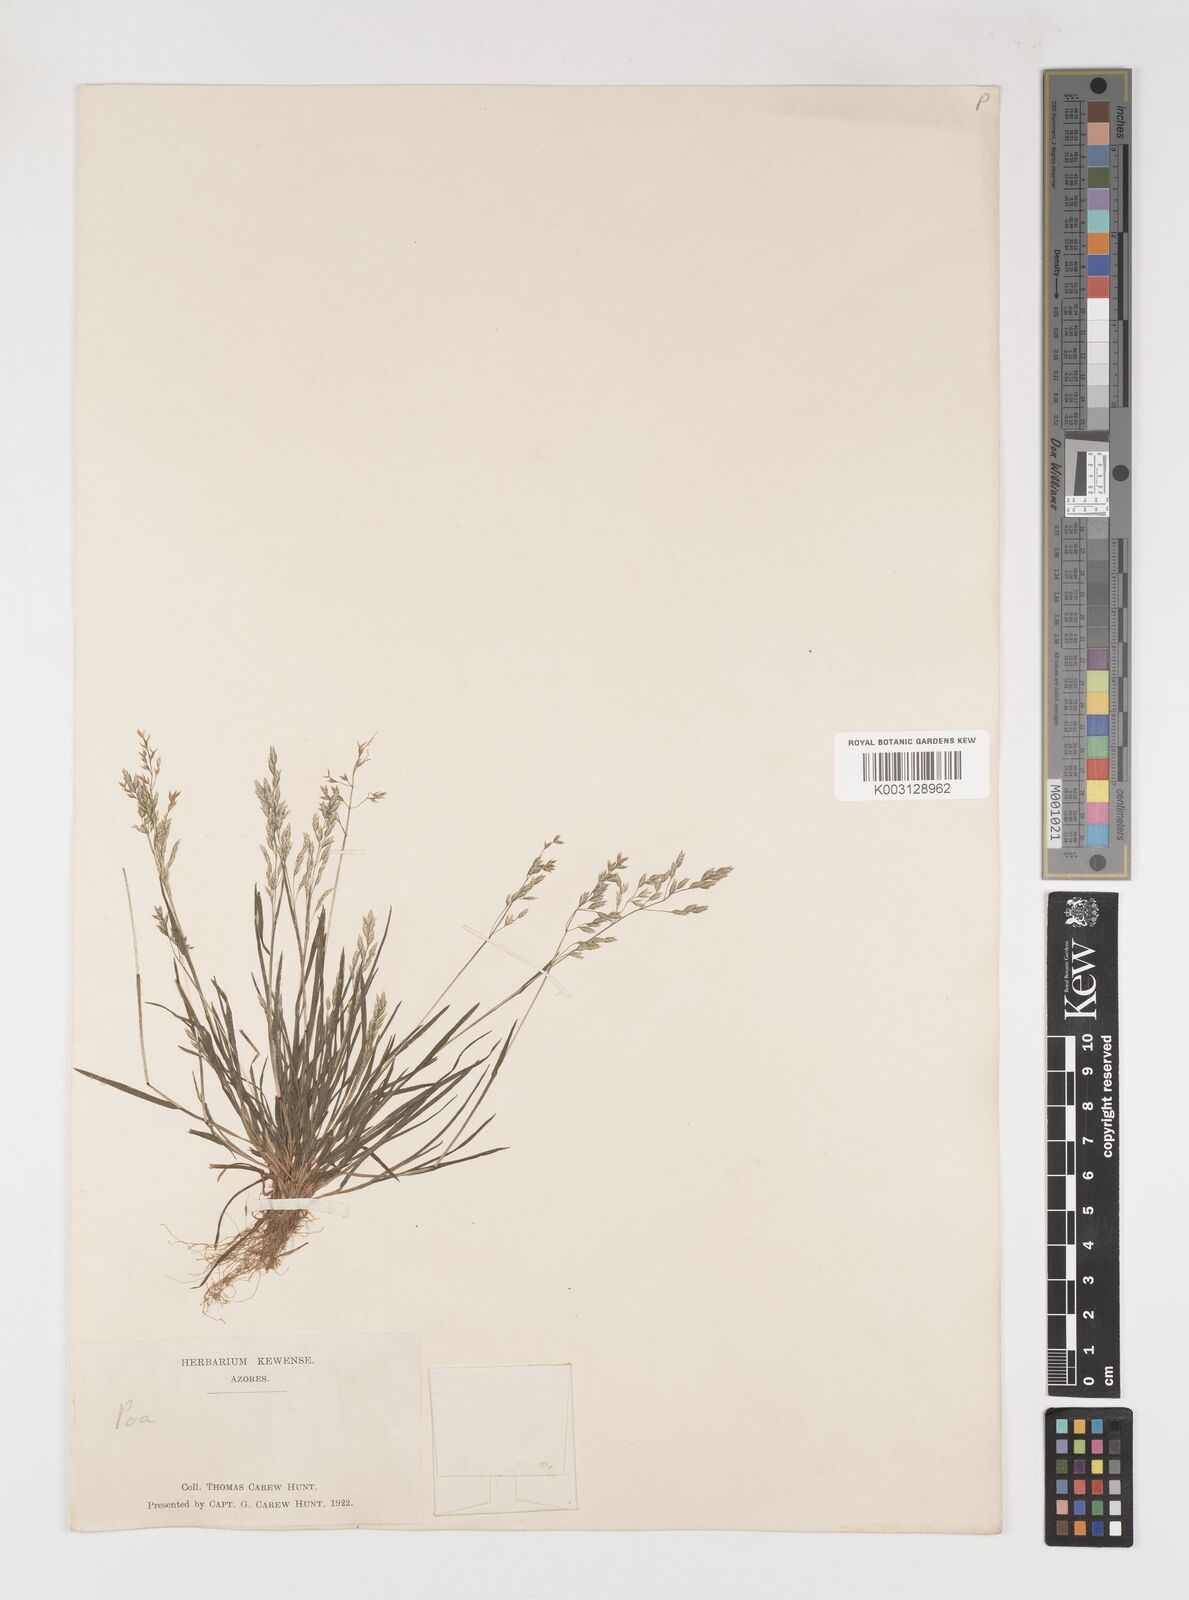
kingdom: Plantae
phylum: Tracheophyta
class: Liliopsida
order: Poales
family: Poaceae
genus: Poa
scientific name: Poa annua
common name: Annual bluegrass
